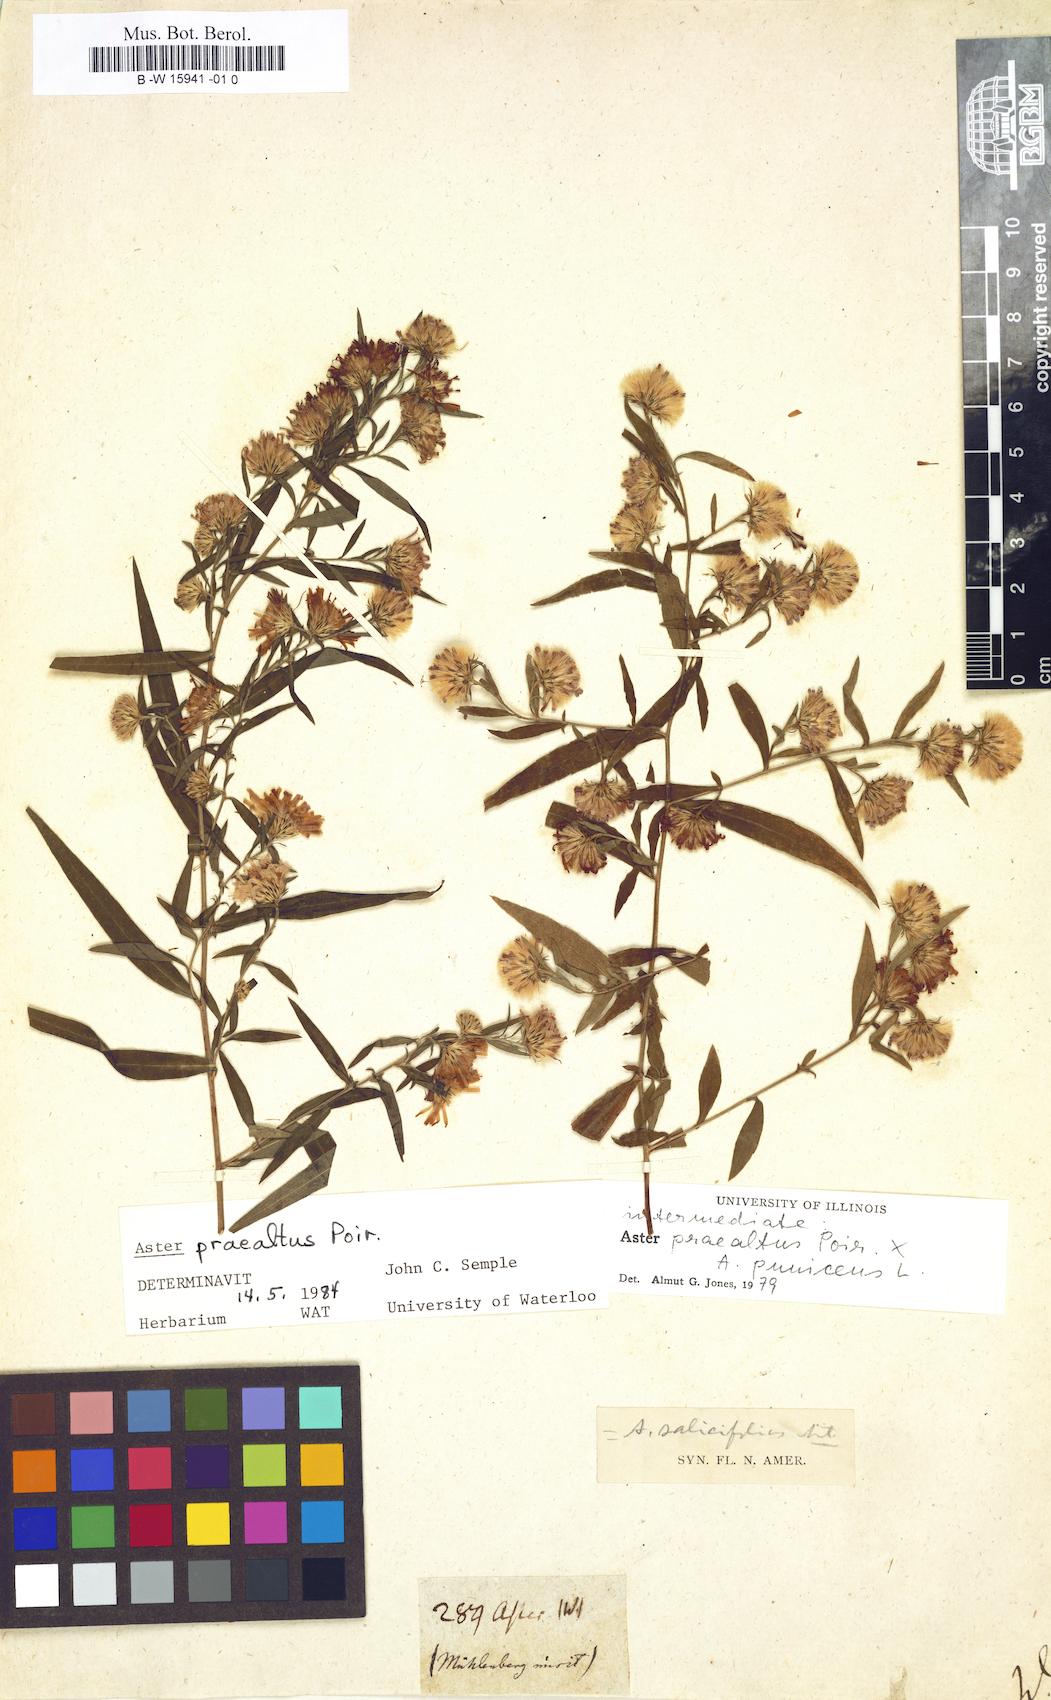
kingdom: Plantae
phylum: Tracheophyta
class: Magnoliopsida
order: Asterales
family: Asteraceae
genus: Aster
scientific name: Aster
